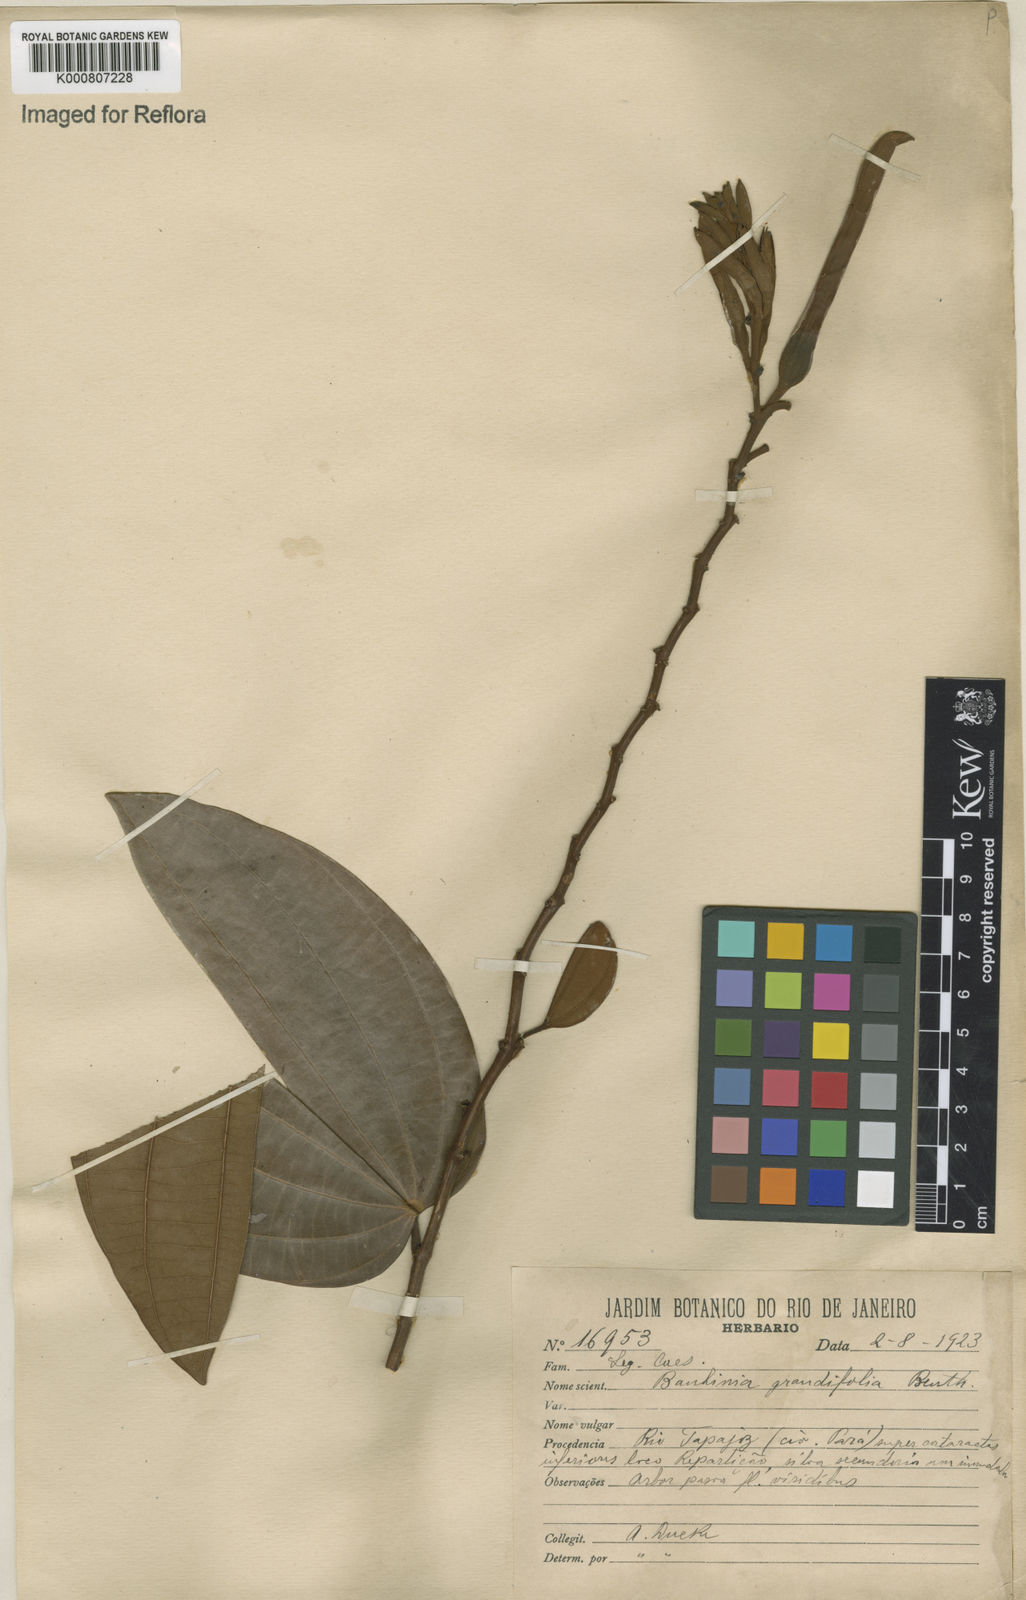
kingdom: Plantae
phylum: Tracheophyta
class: Magnoliopsida
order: Fabales
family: Fabaceae
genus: Bauhinia
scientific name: Bauhinia
